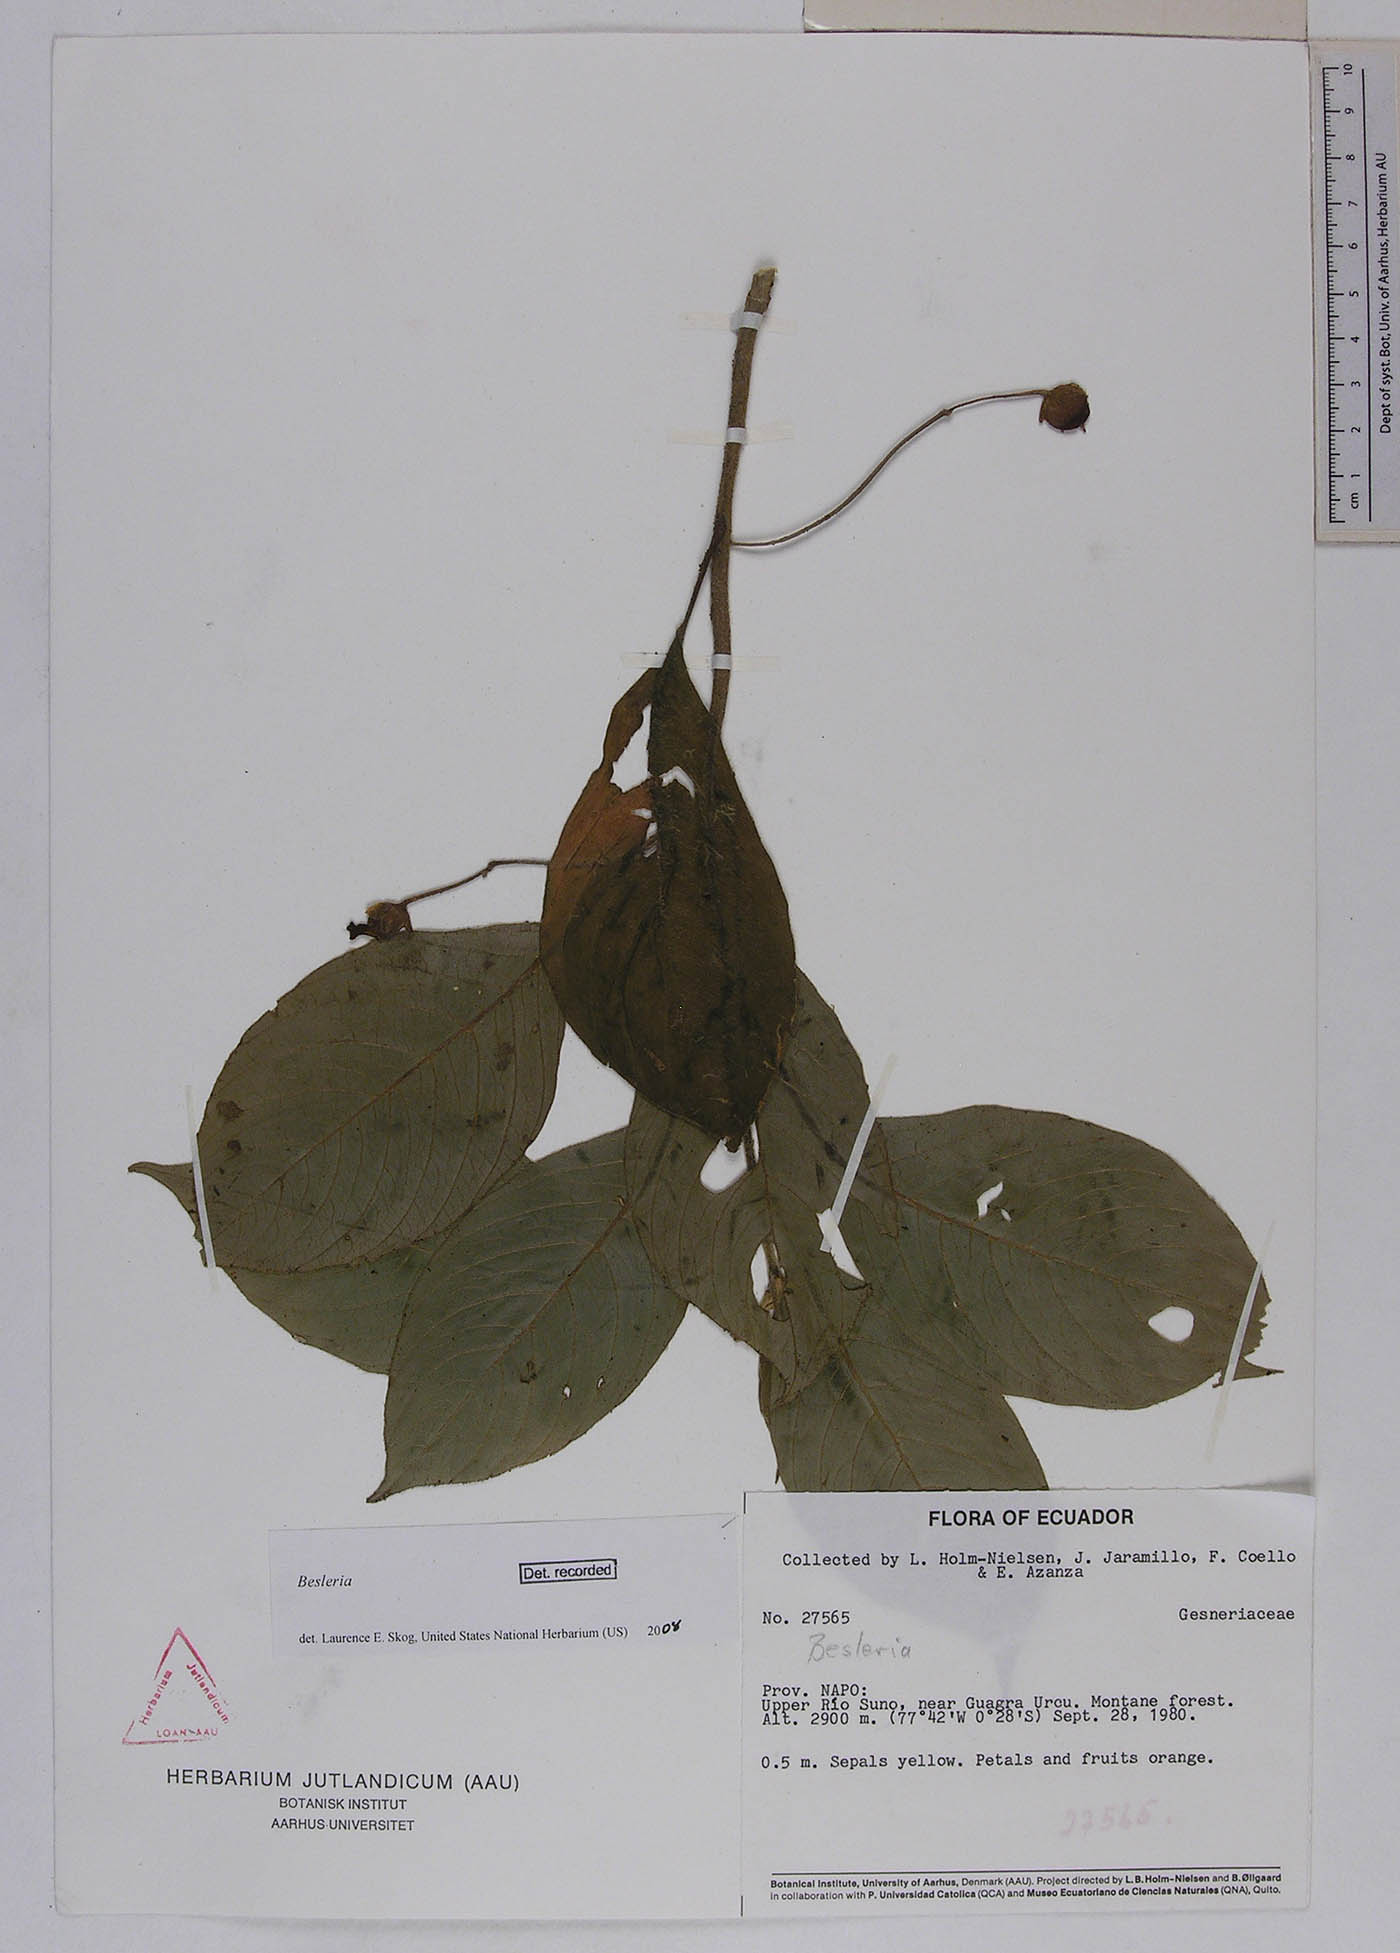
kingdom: Plantae
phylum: Tracheophyta
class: Magnoliopsida
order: Lamiales
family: Gesneriaceae
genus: Besleria
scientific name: Besleria
